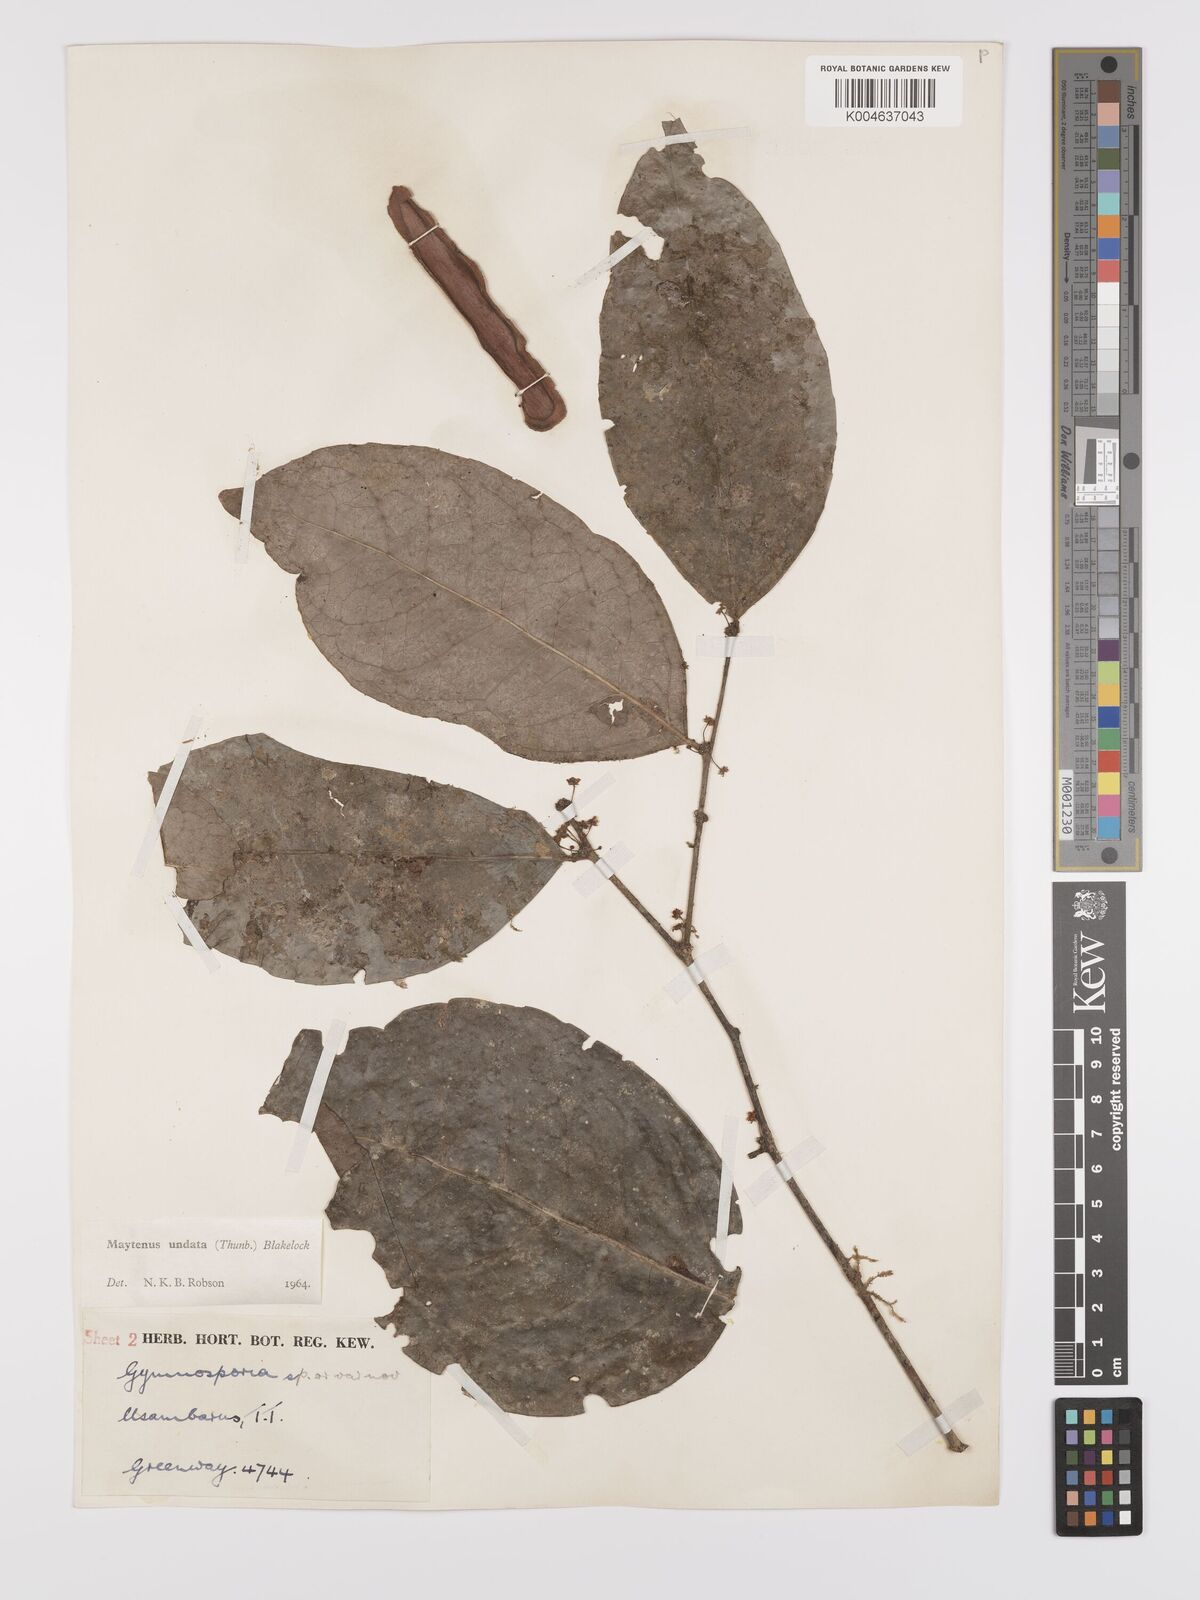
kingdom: Plantae
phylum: Tracheophyta
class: Magnoliopsida
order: Celastrales
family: Celastraceae
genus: Gymnosporia
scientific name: Gymnosporia undata
